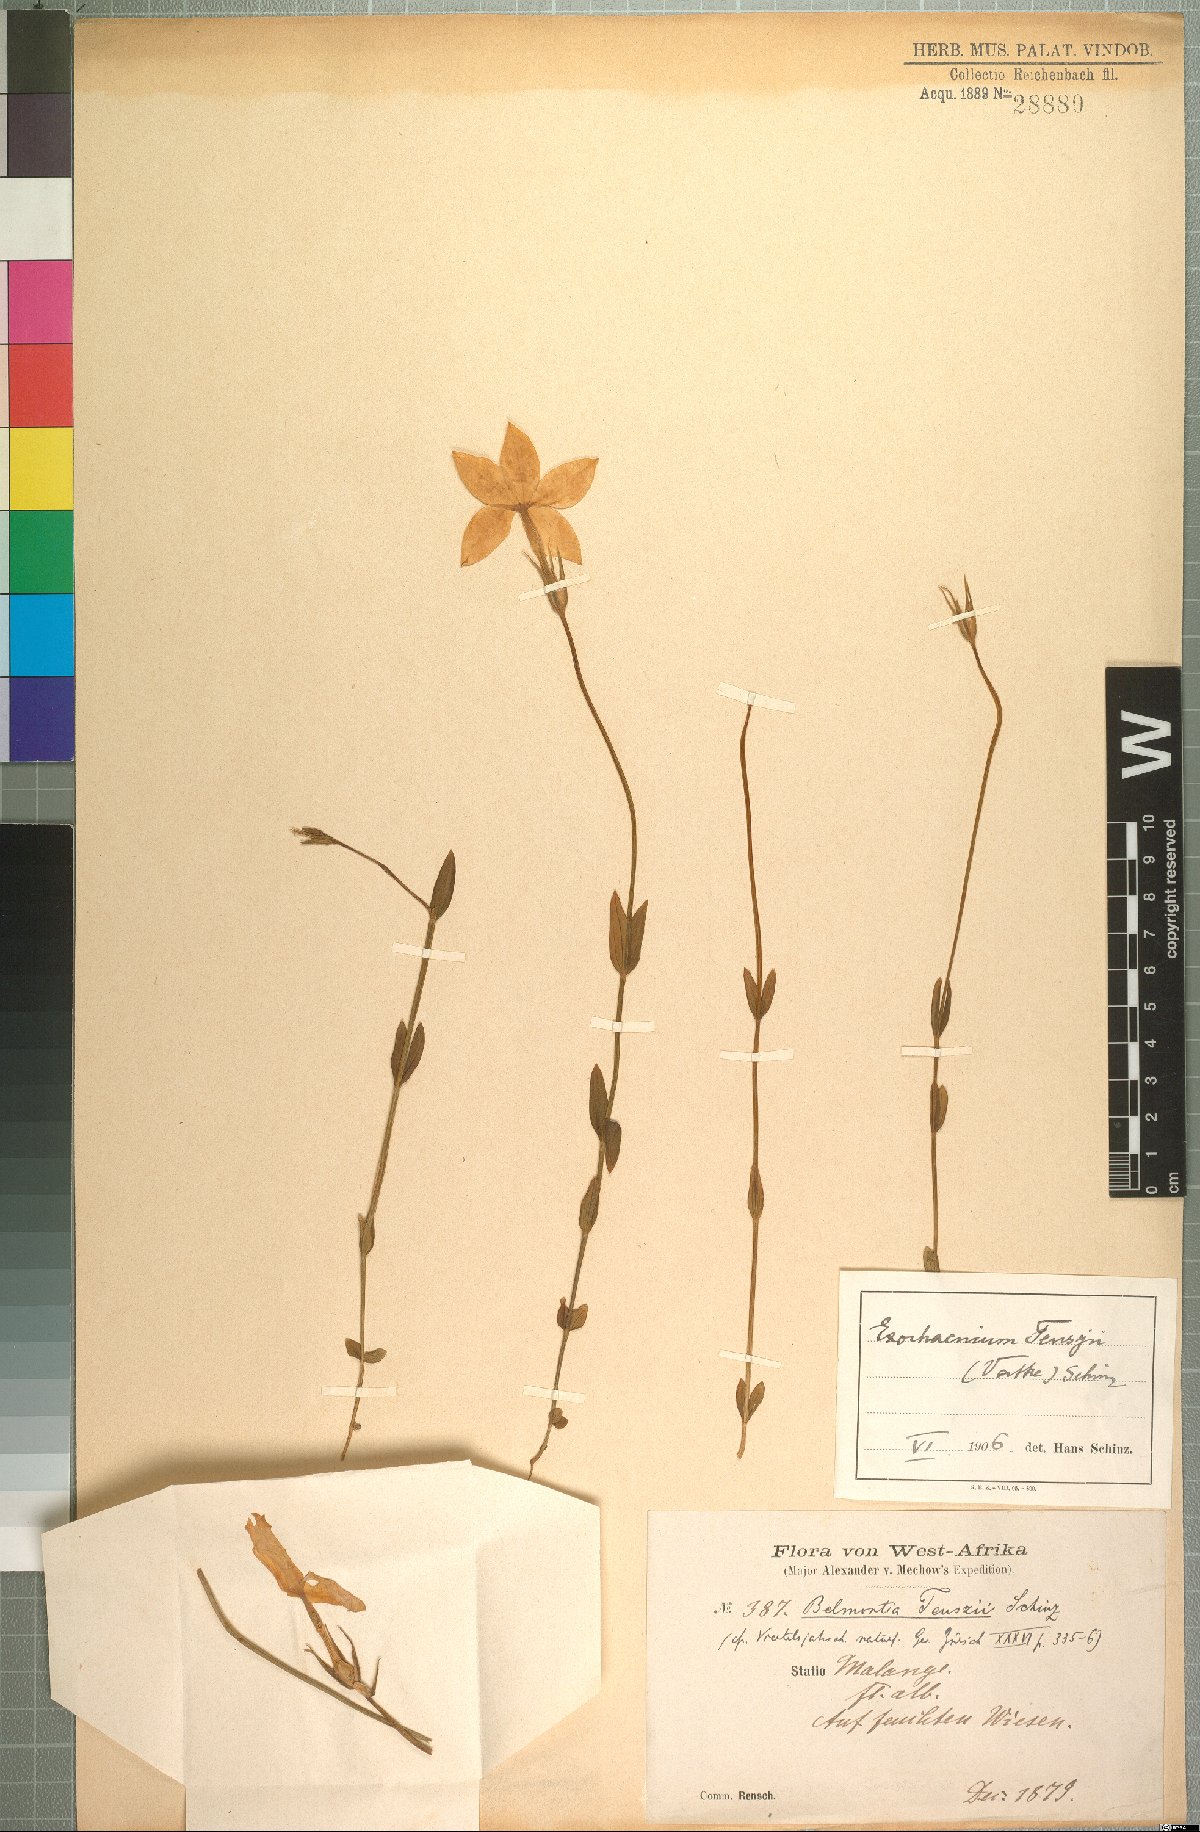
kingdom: Plantae
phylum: Tracheophyta
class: Magnoliopsida
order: Gentianales
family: Gentianaceae
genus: Exochaenium
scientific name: Exochaenium teuszii
